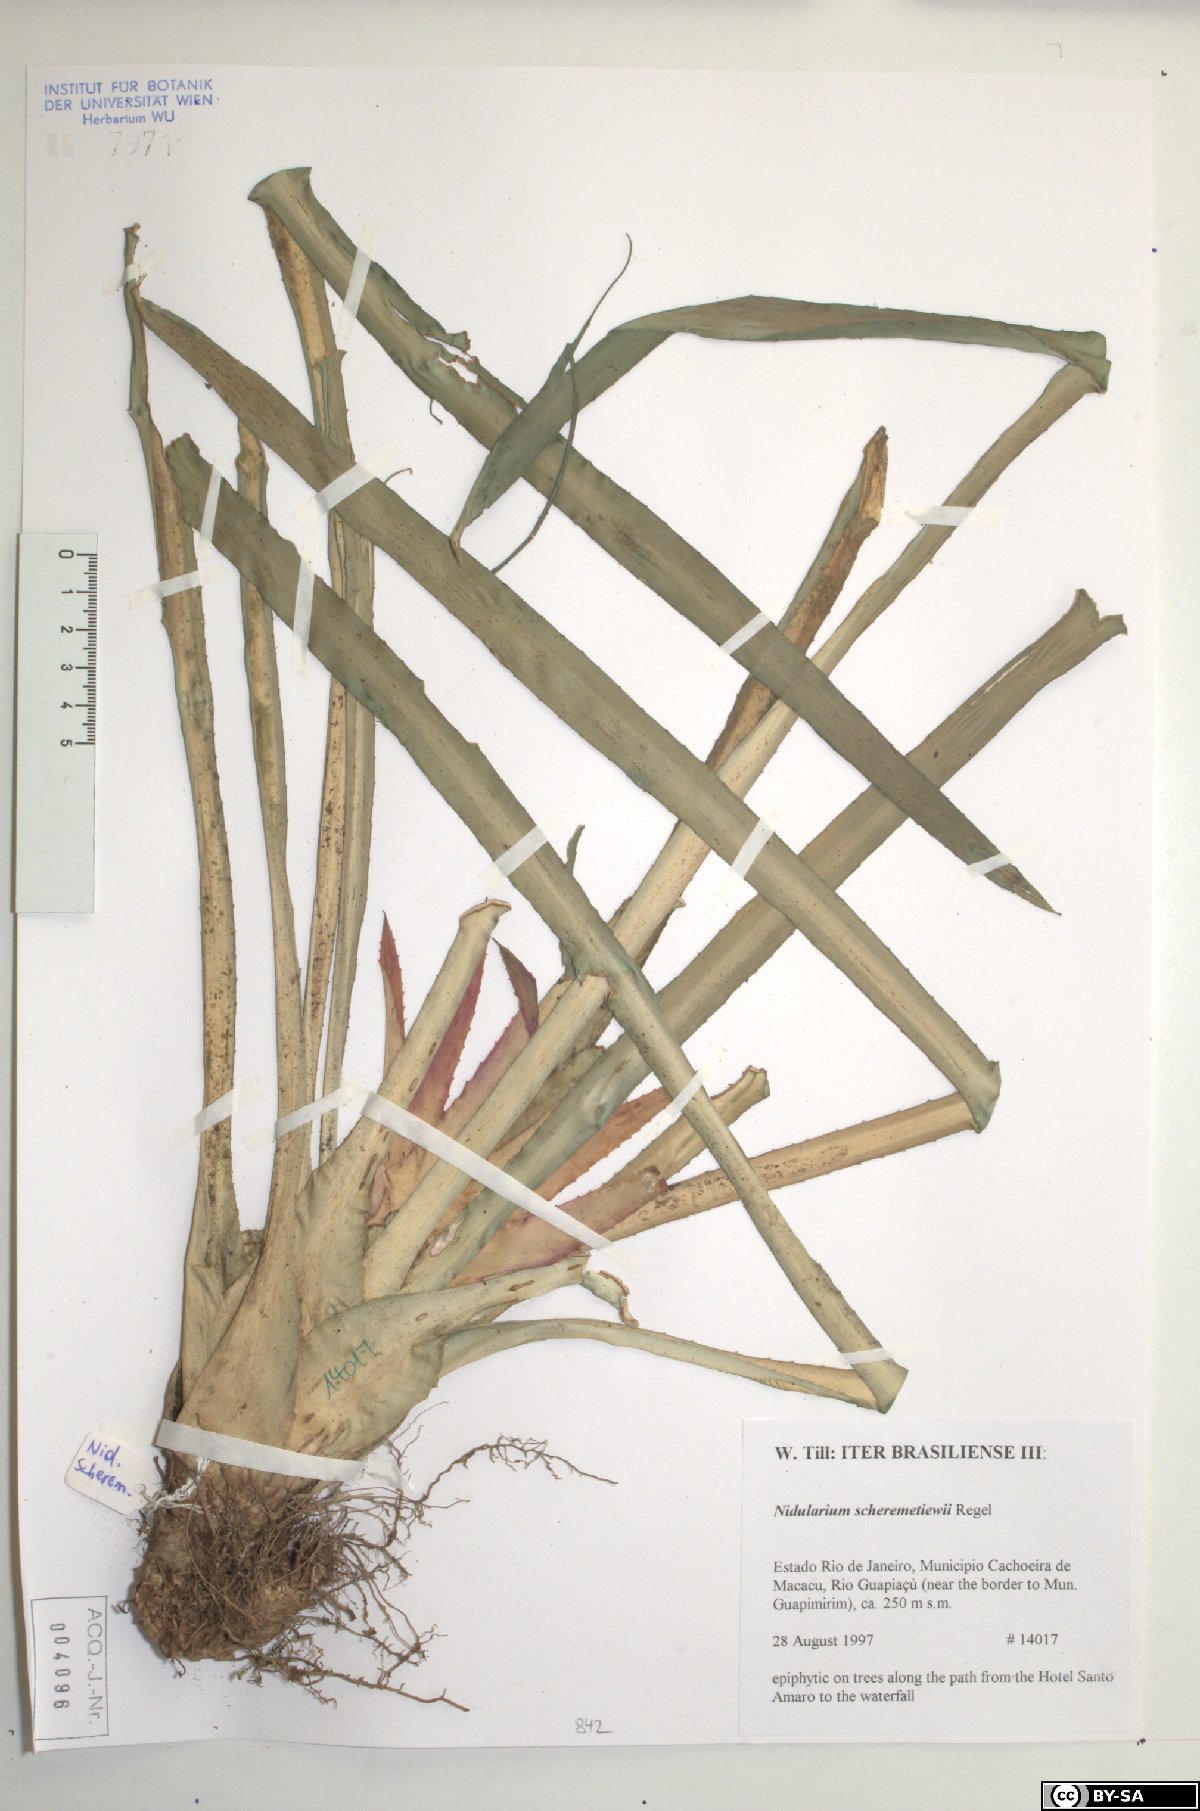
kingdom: Plantae
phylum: Tracheophyta
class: Liliopsida
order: Poales
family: Bromeliaceae
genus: Nidularium
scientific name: Nidularium scheremetiewii
